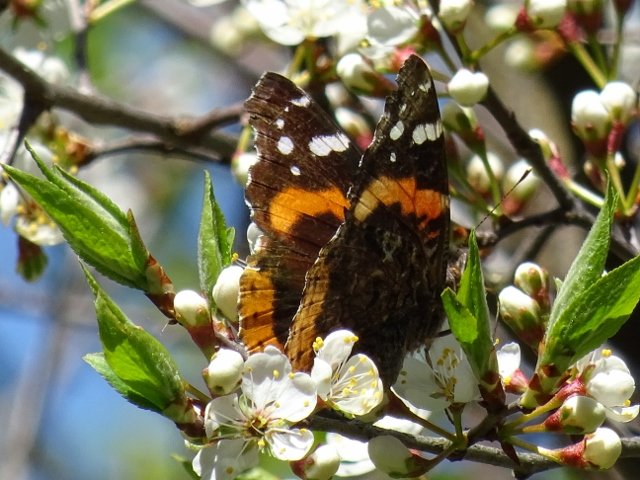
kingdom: Animalia
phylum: Arthropoda
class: Insecta
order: Lepidoptera
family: Nymphalidae
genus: Vanessa
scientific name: Vanessa atalanta
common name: Red Admiral
